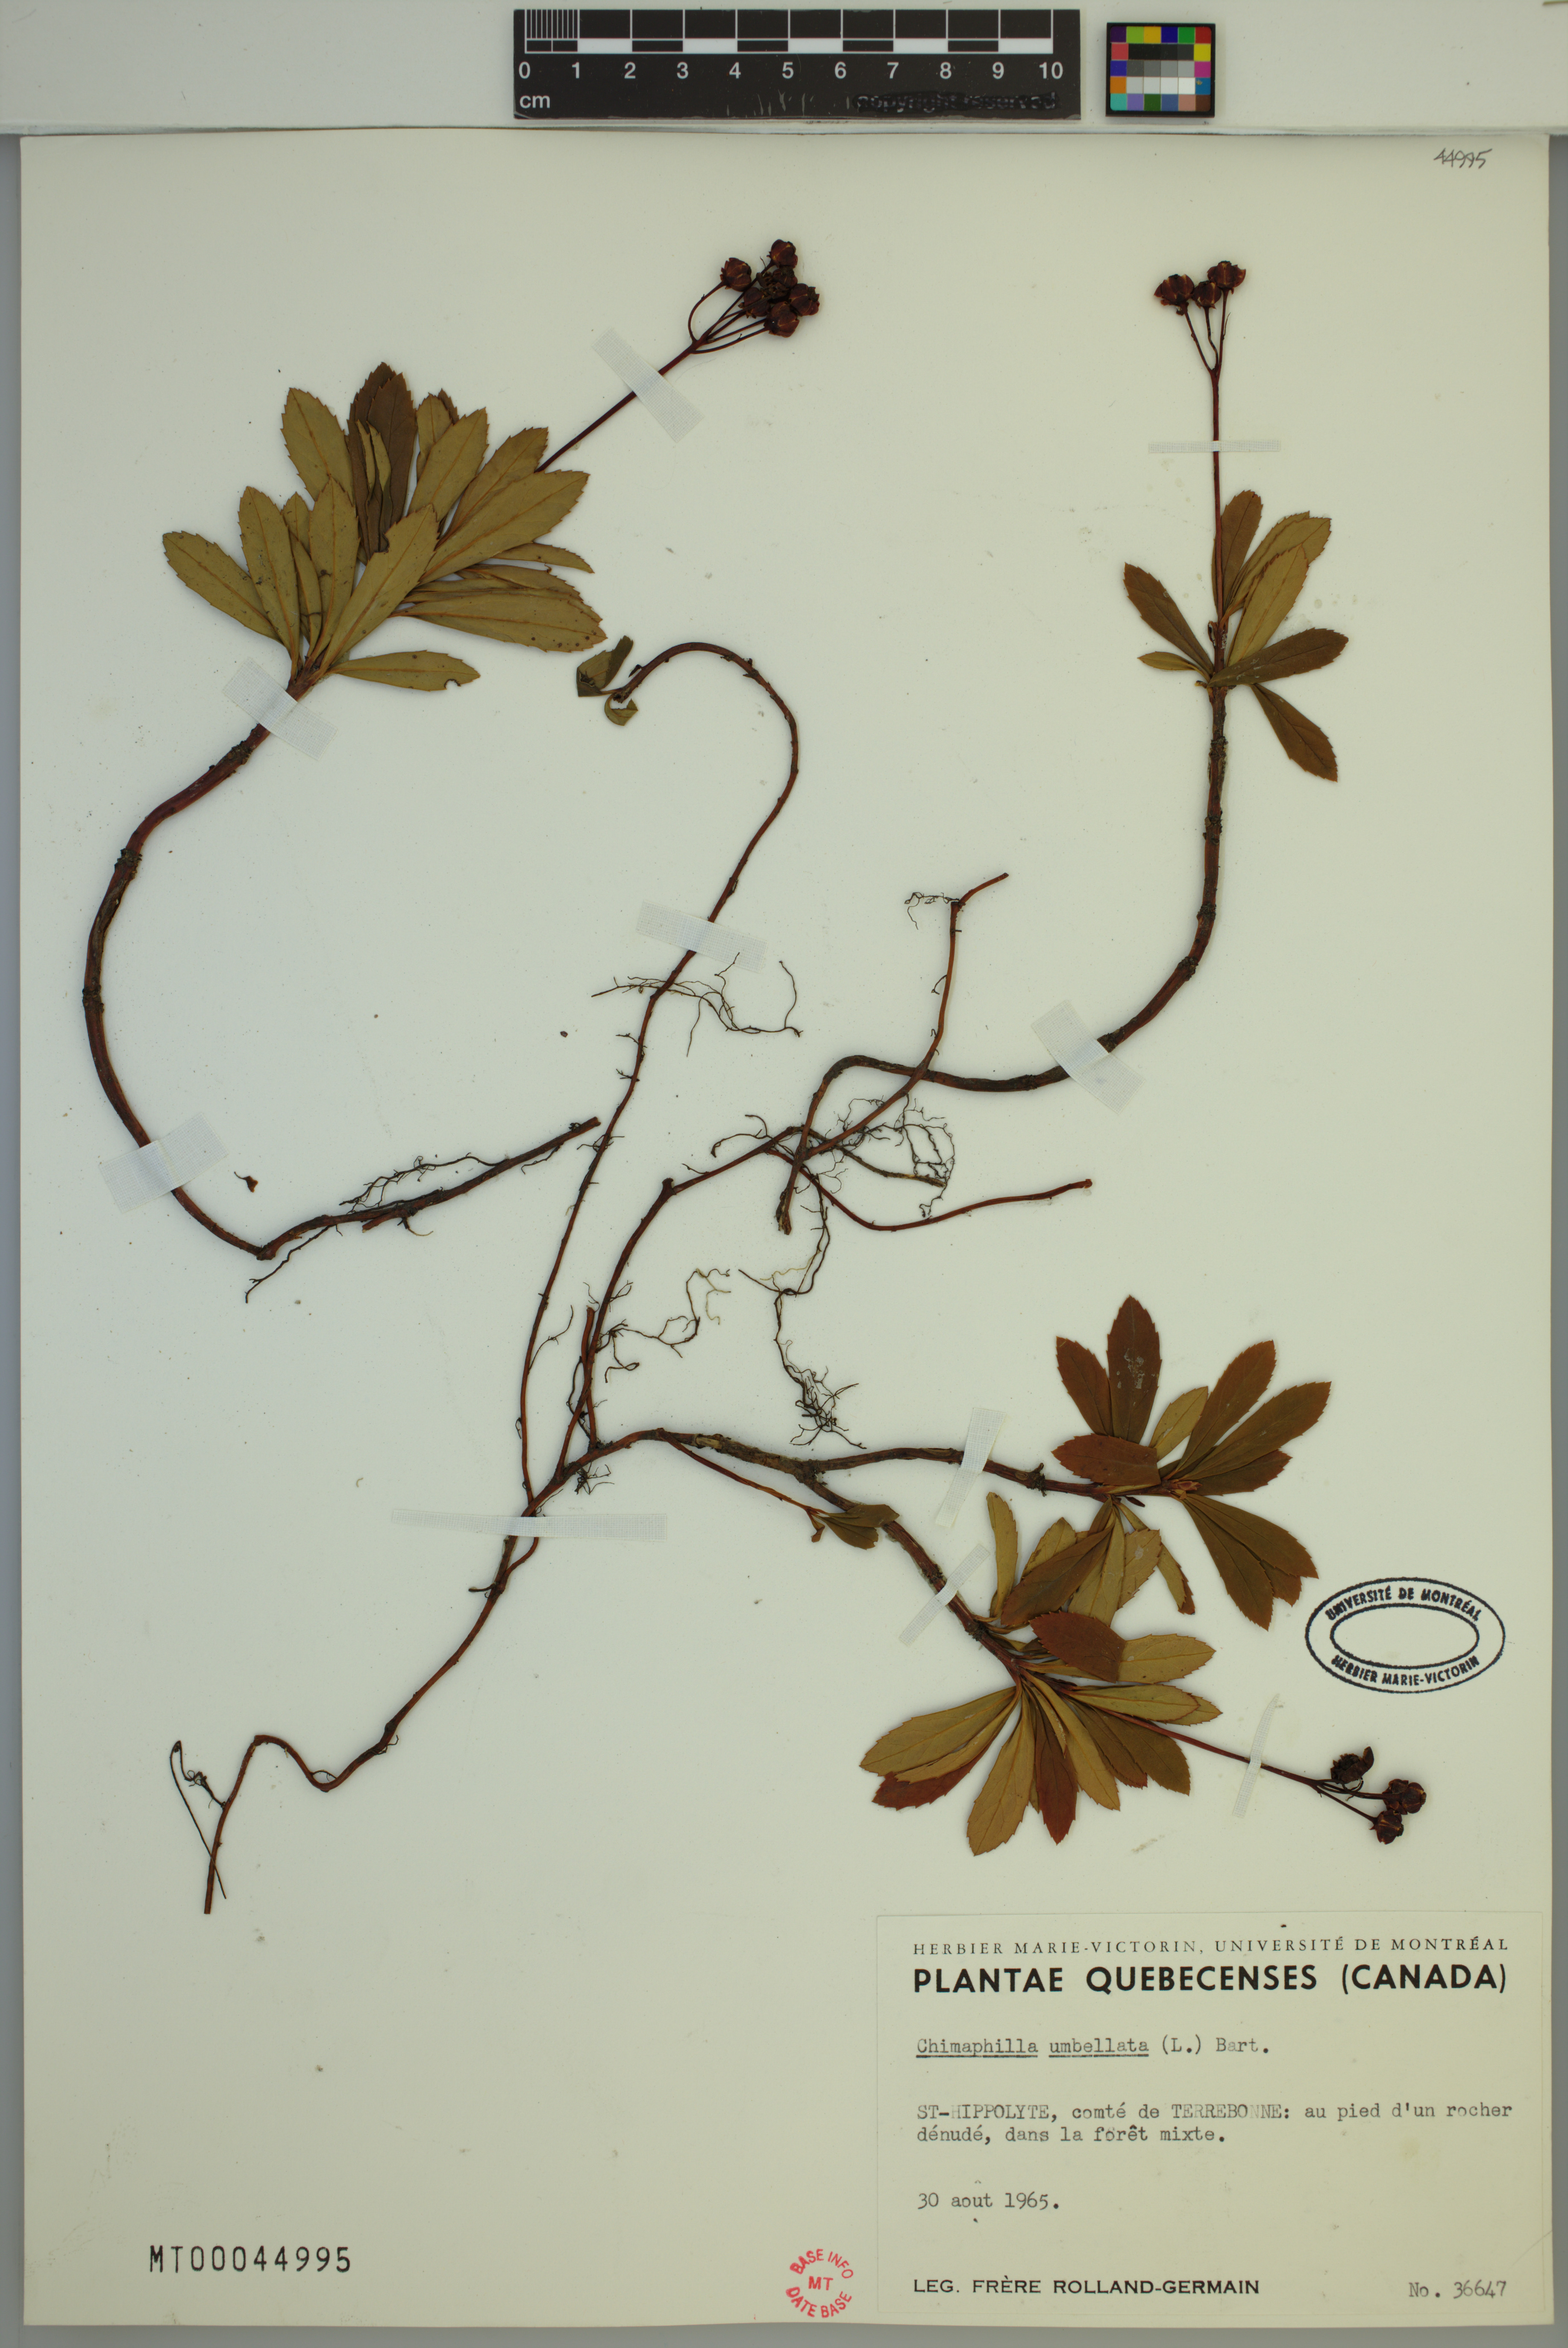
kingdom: Plantae
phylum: Tracheophyta
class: Magnoliopsida
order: Ericales
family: Ericaceae
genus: Chimaphila
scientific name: Chimaphila umbellata
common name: Pipsissewa
